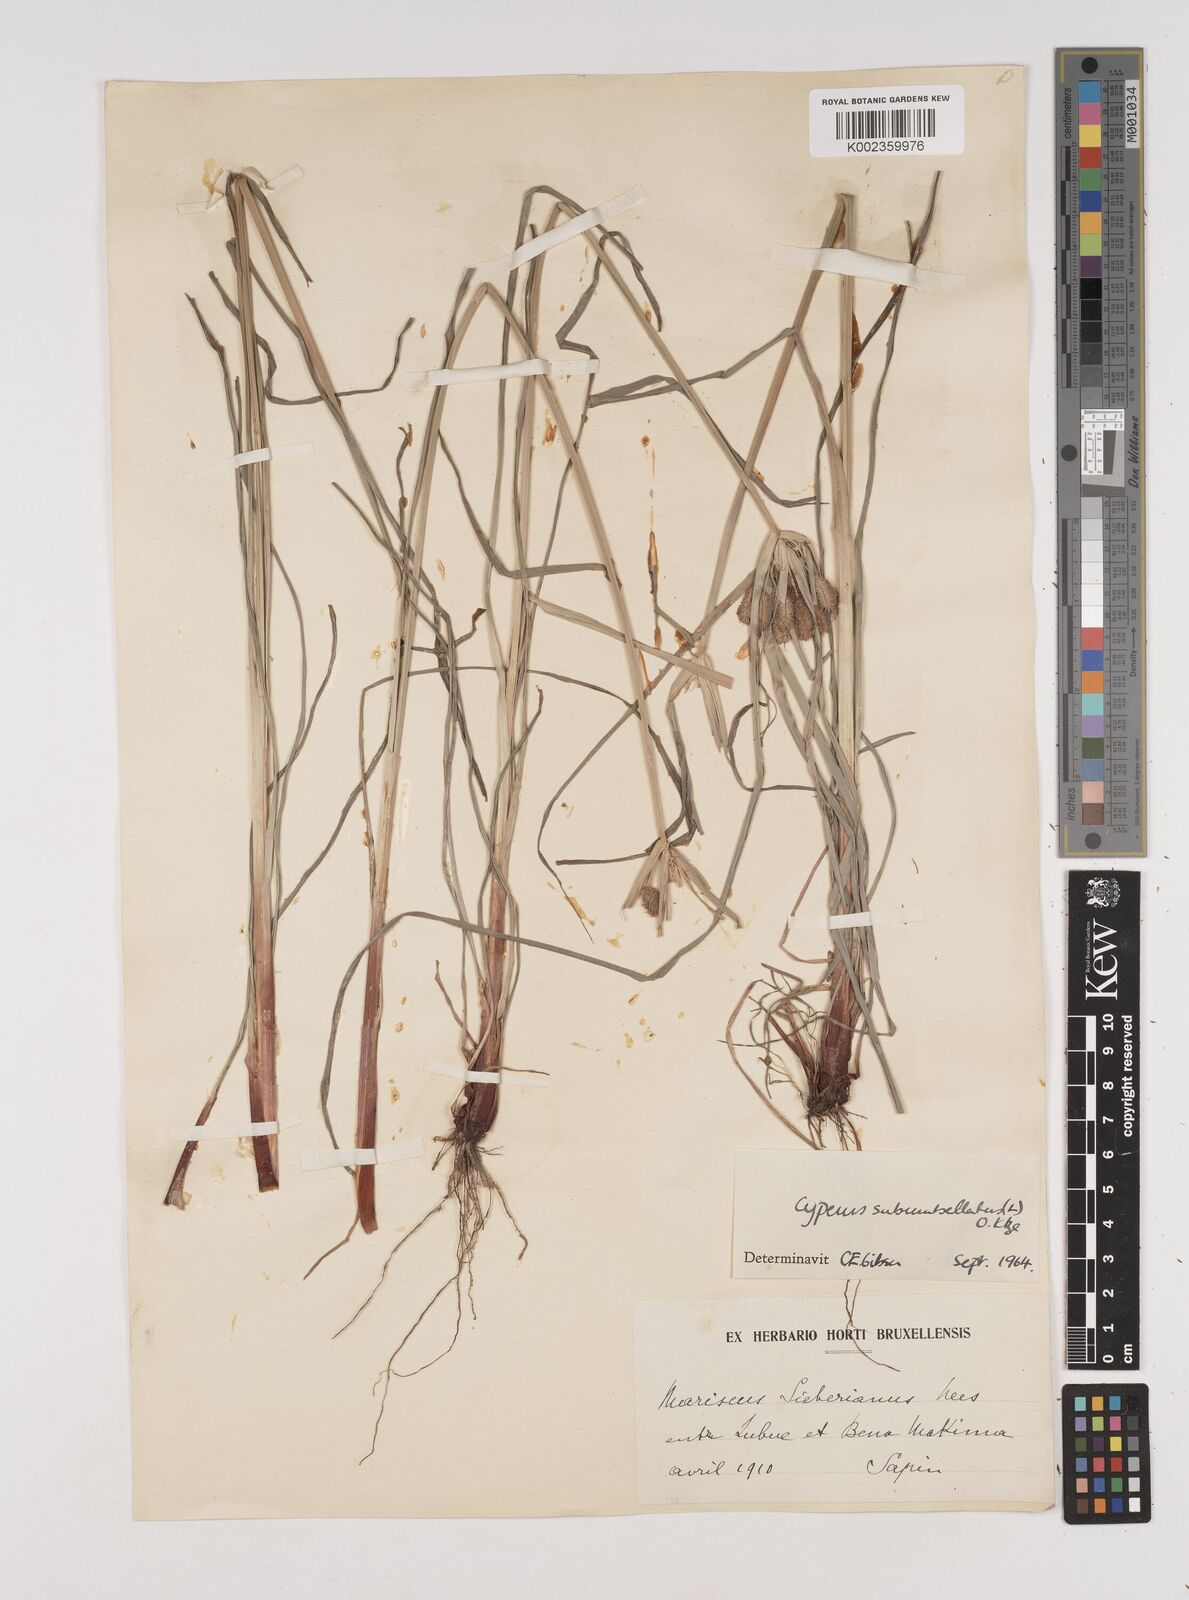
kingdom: Plantae
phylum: Tracheophyta
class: Liliopsida
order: Poales
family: Cyperaceae
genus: Cyperus
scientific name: Cyperus cyperoides
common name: Pacific island flat sedge
